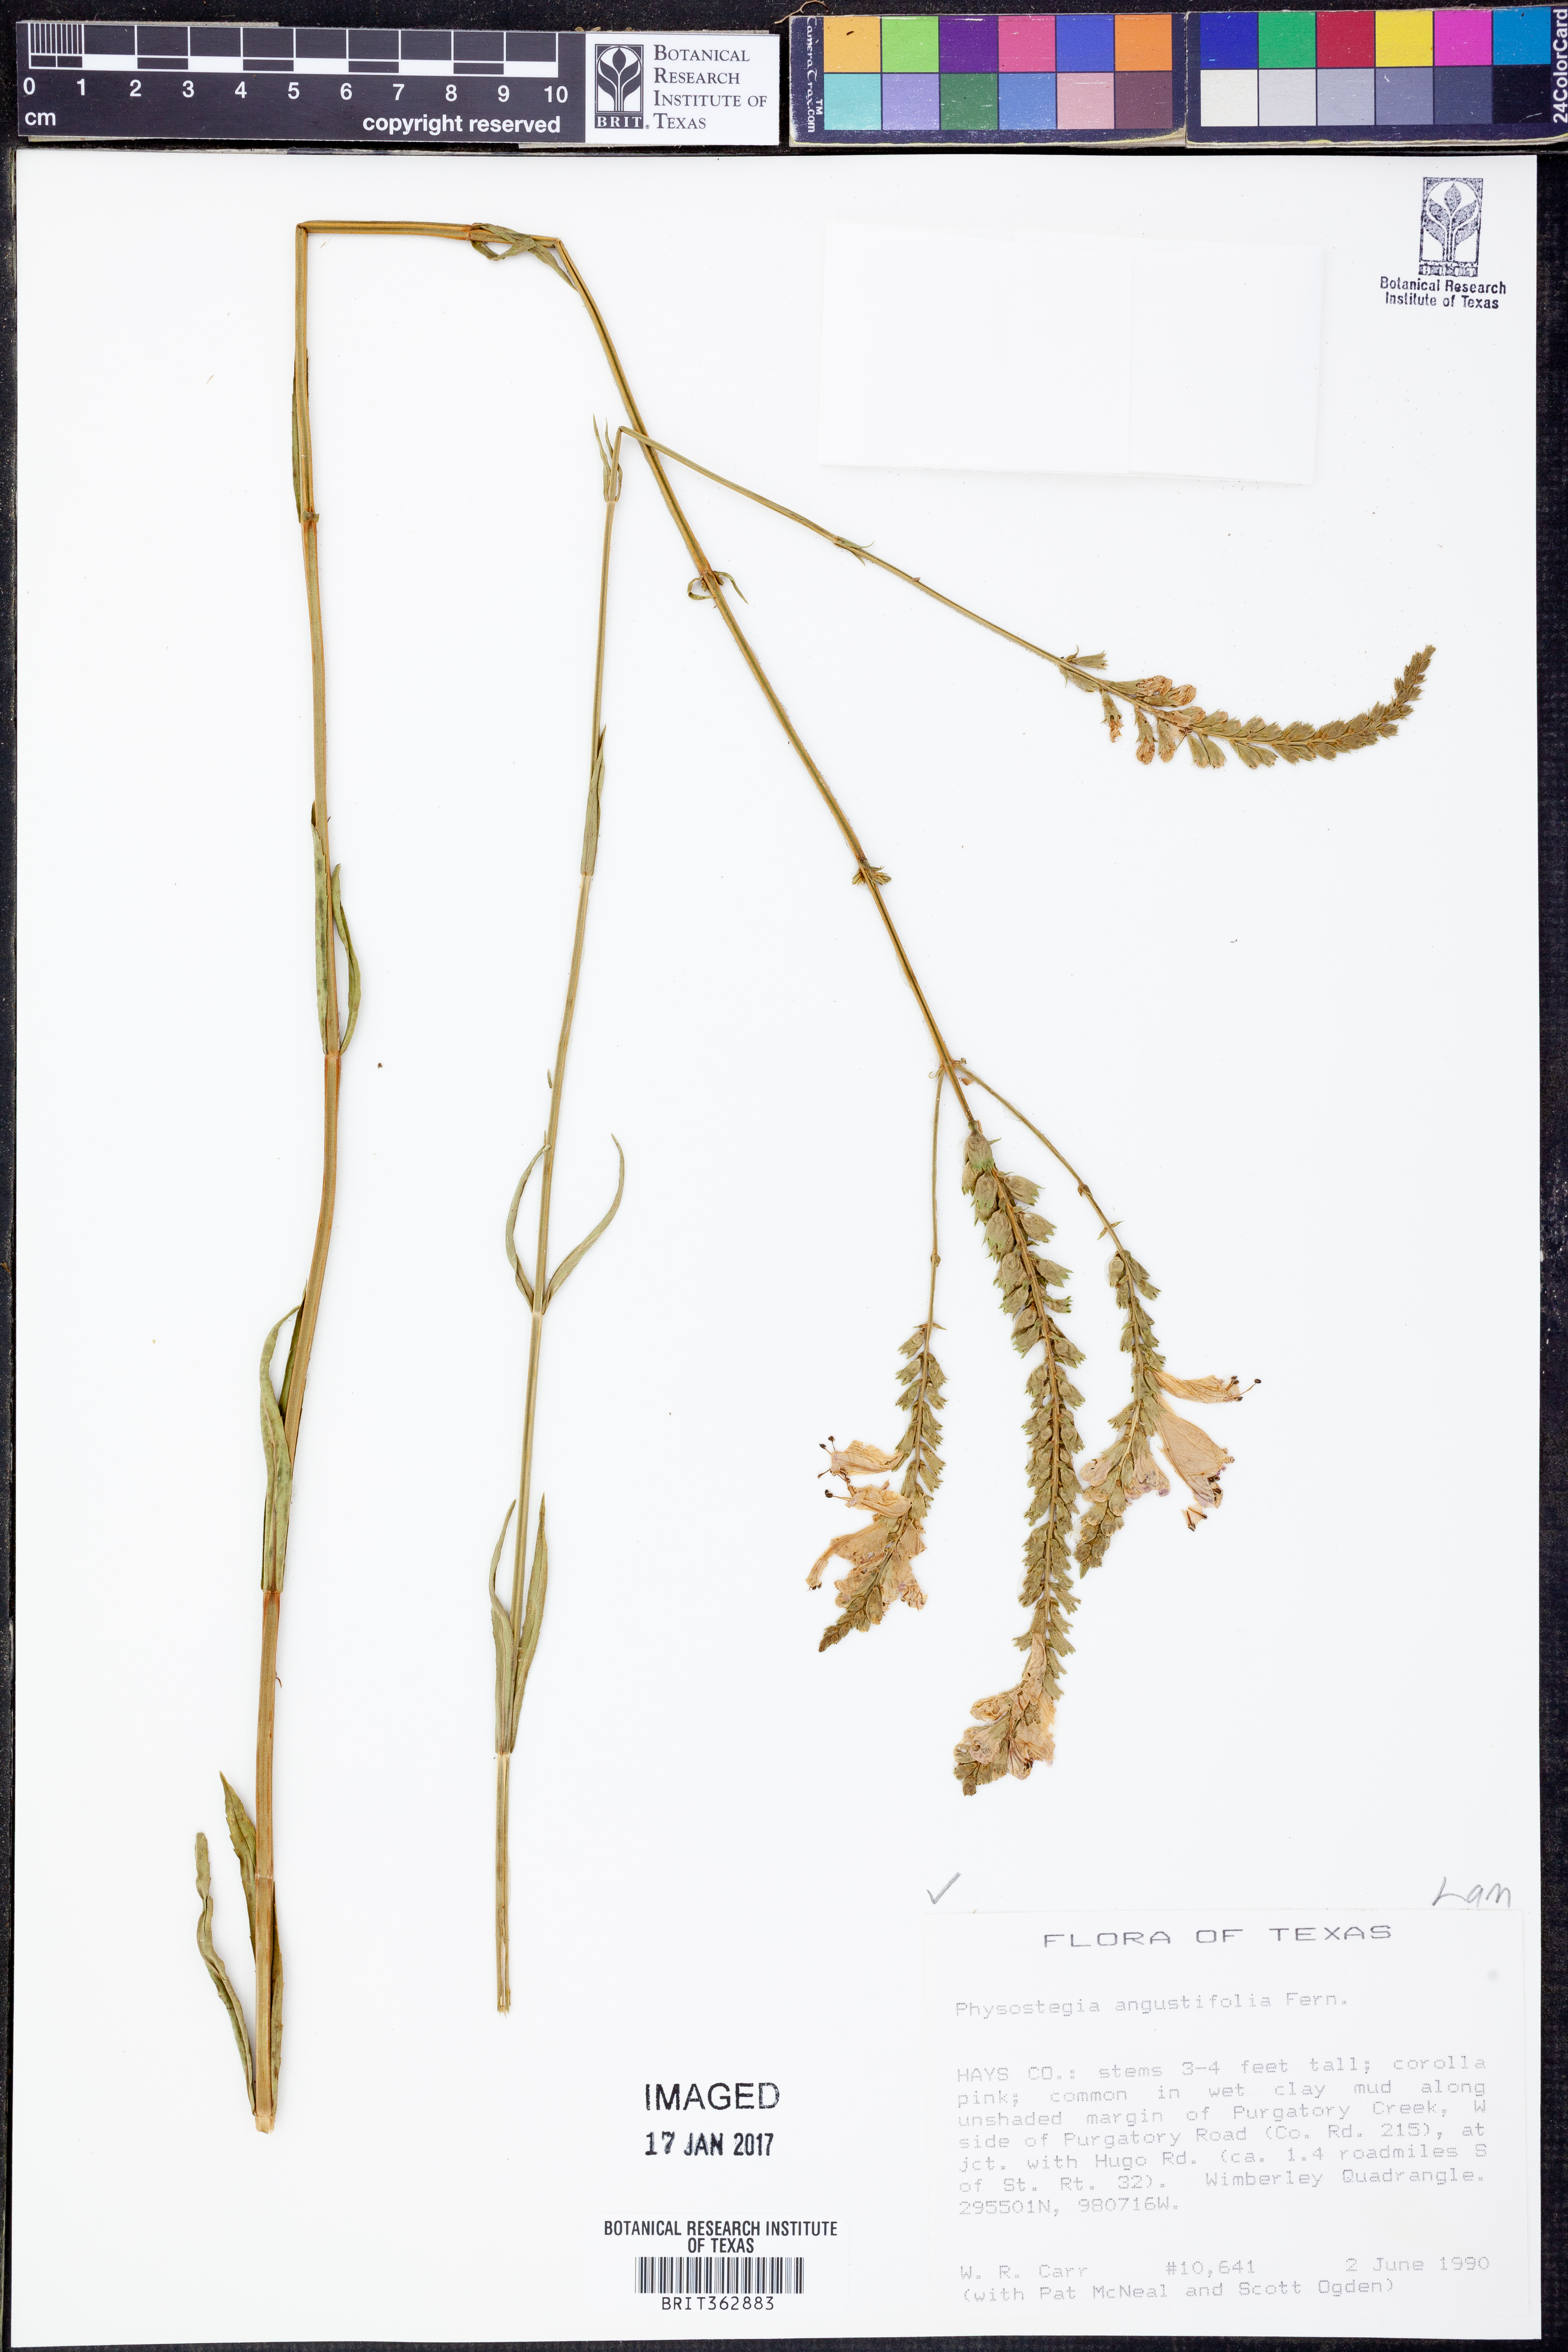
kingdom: Plantae
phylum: Tracheophyta
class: Magnoliopsida
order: Lamiales
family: Lamiaceae
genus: Physostegia
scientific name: Physostegia angustifolia
